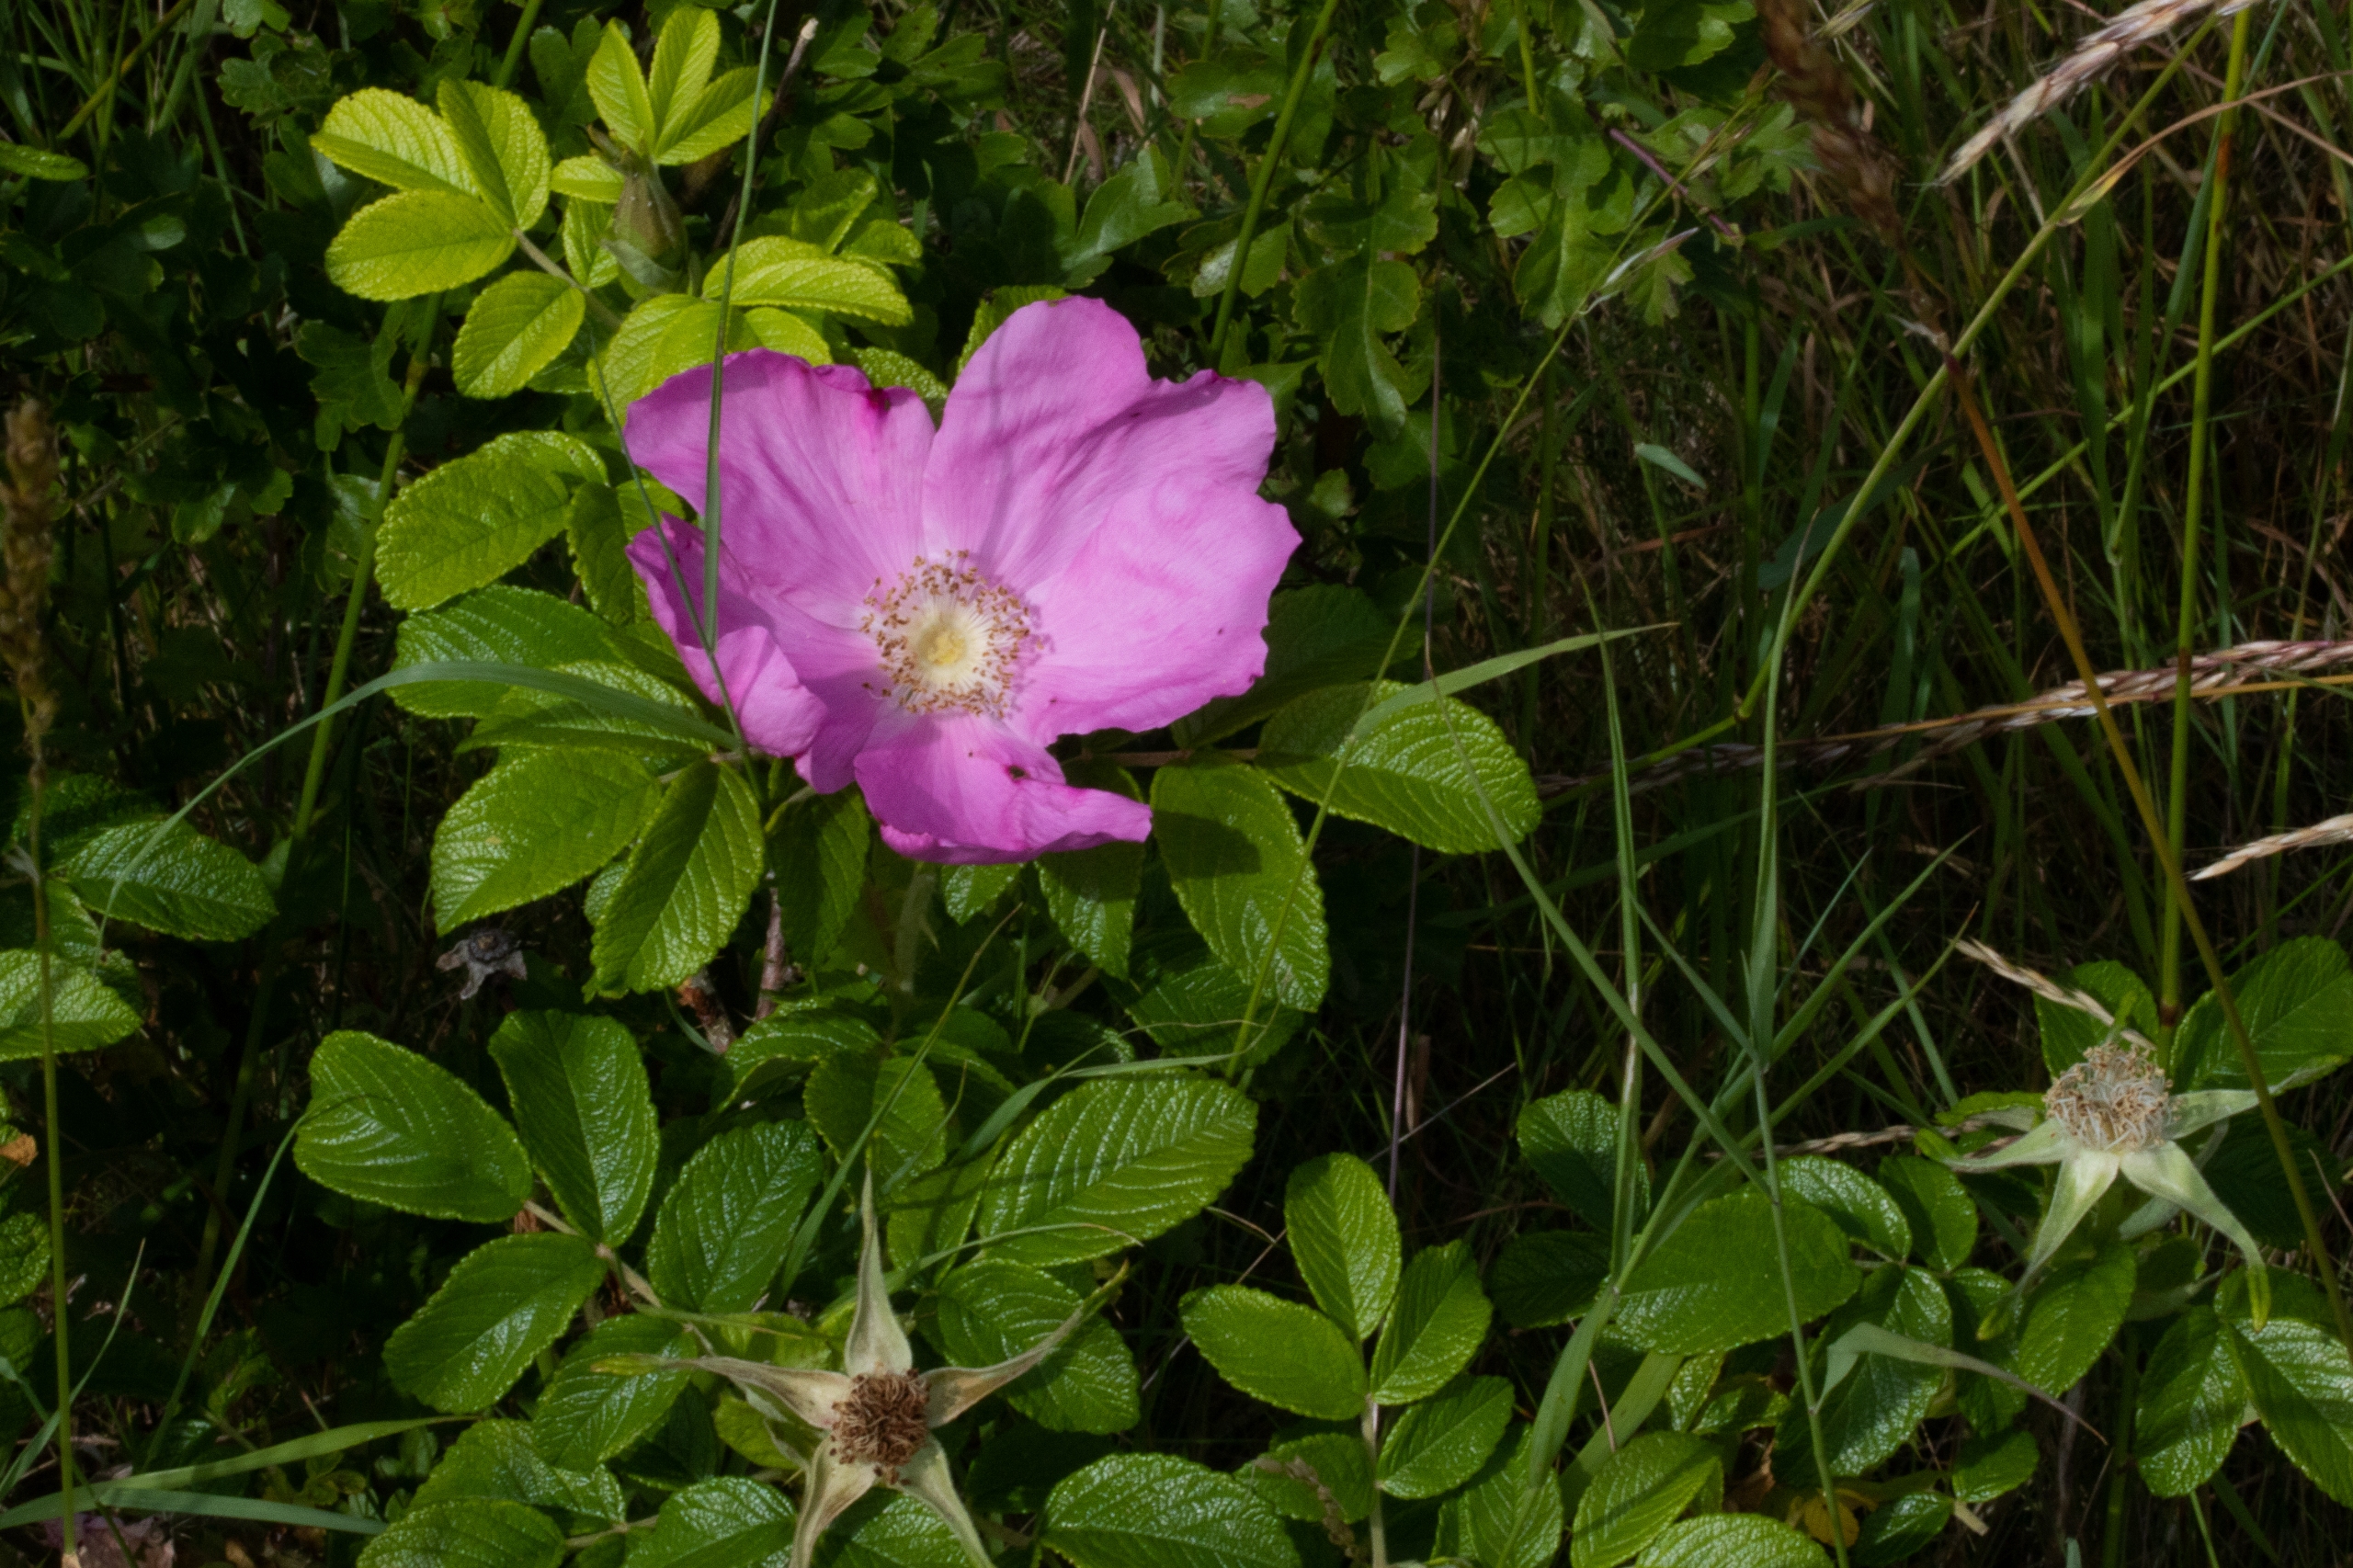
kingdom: Plantae
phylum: Tracheophyta
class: Magnoliopsida
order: Rosales
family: Rosaceae
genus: Rosa
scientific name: Rosa rugosa
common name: Rynket rose
